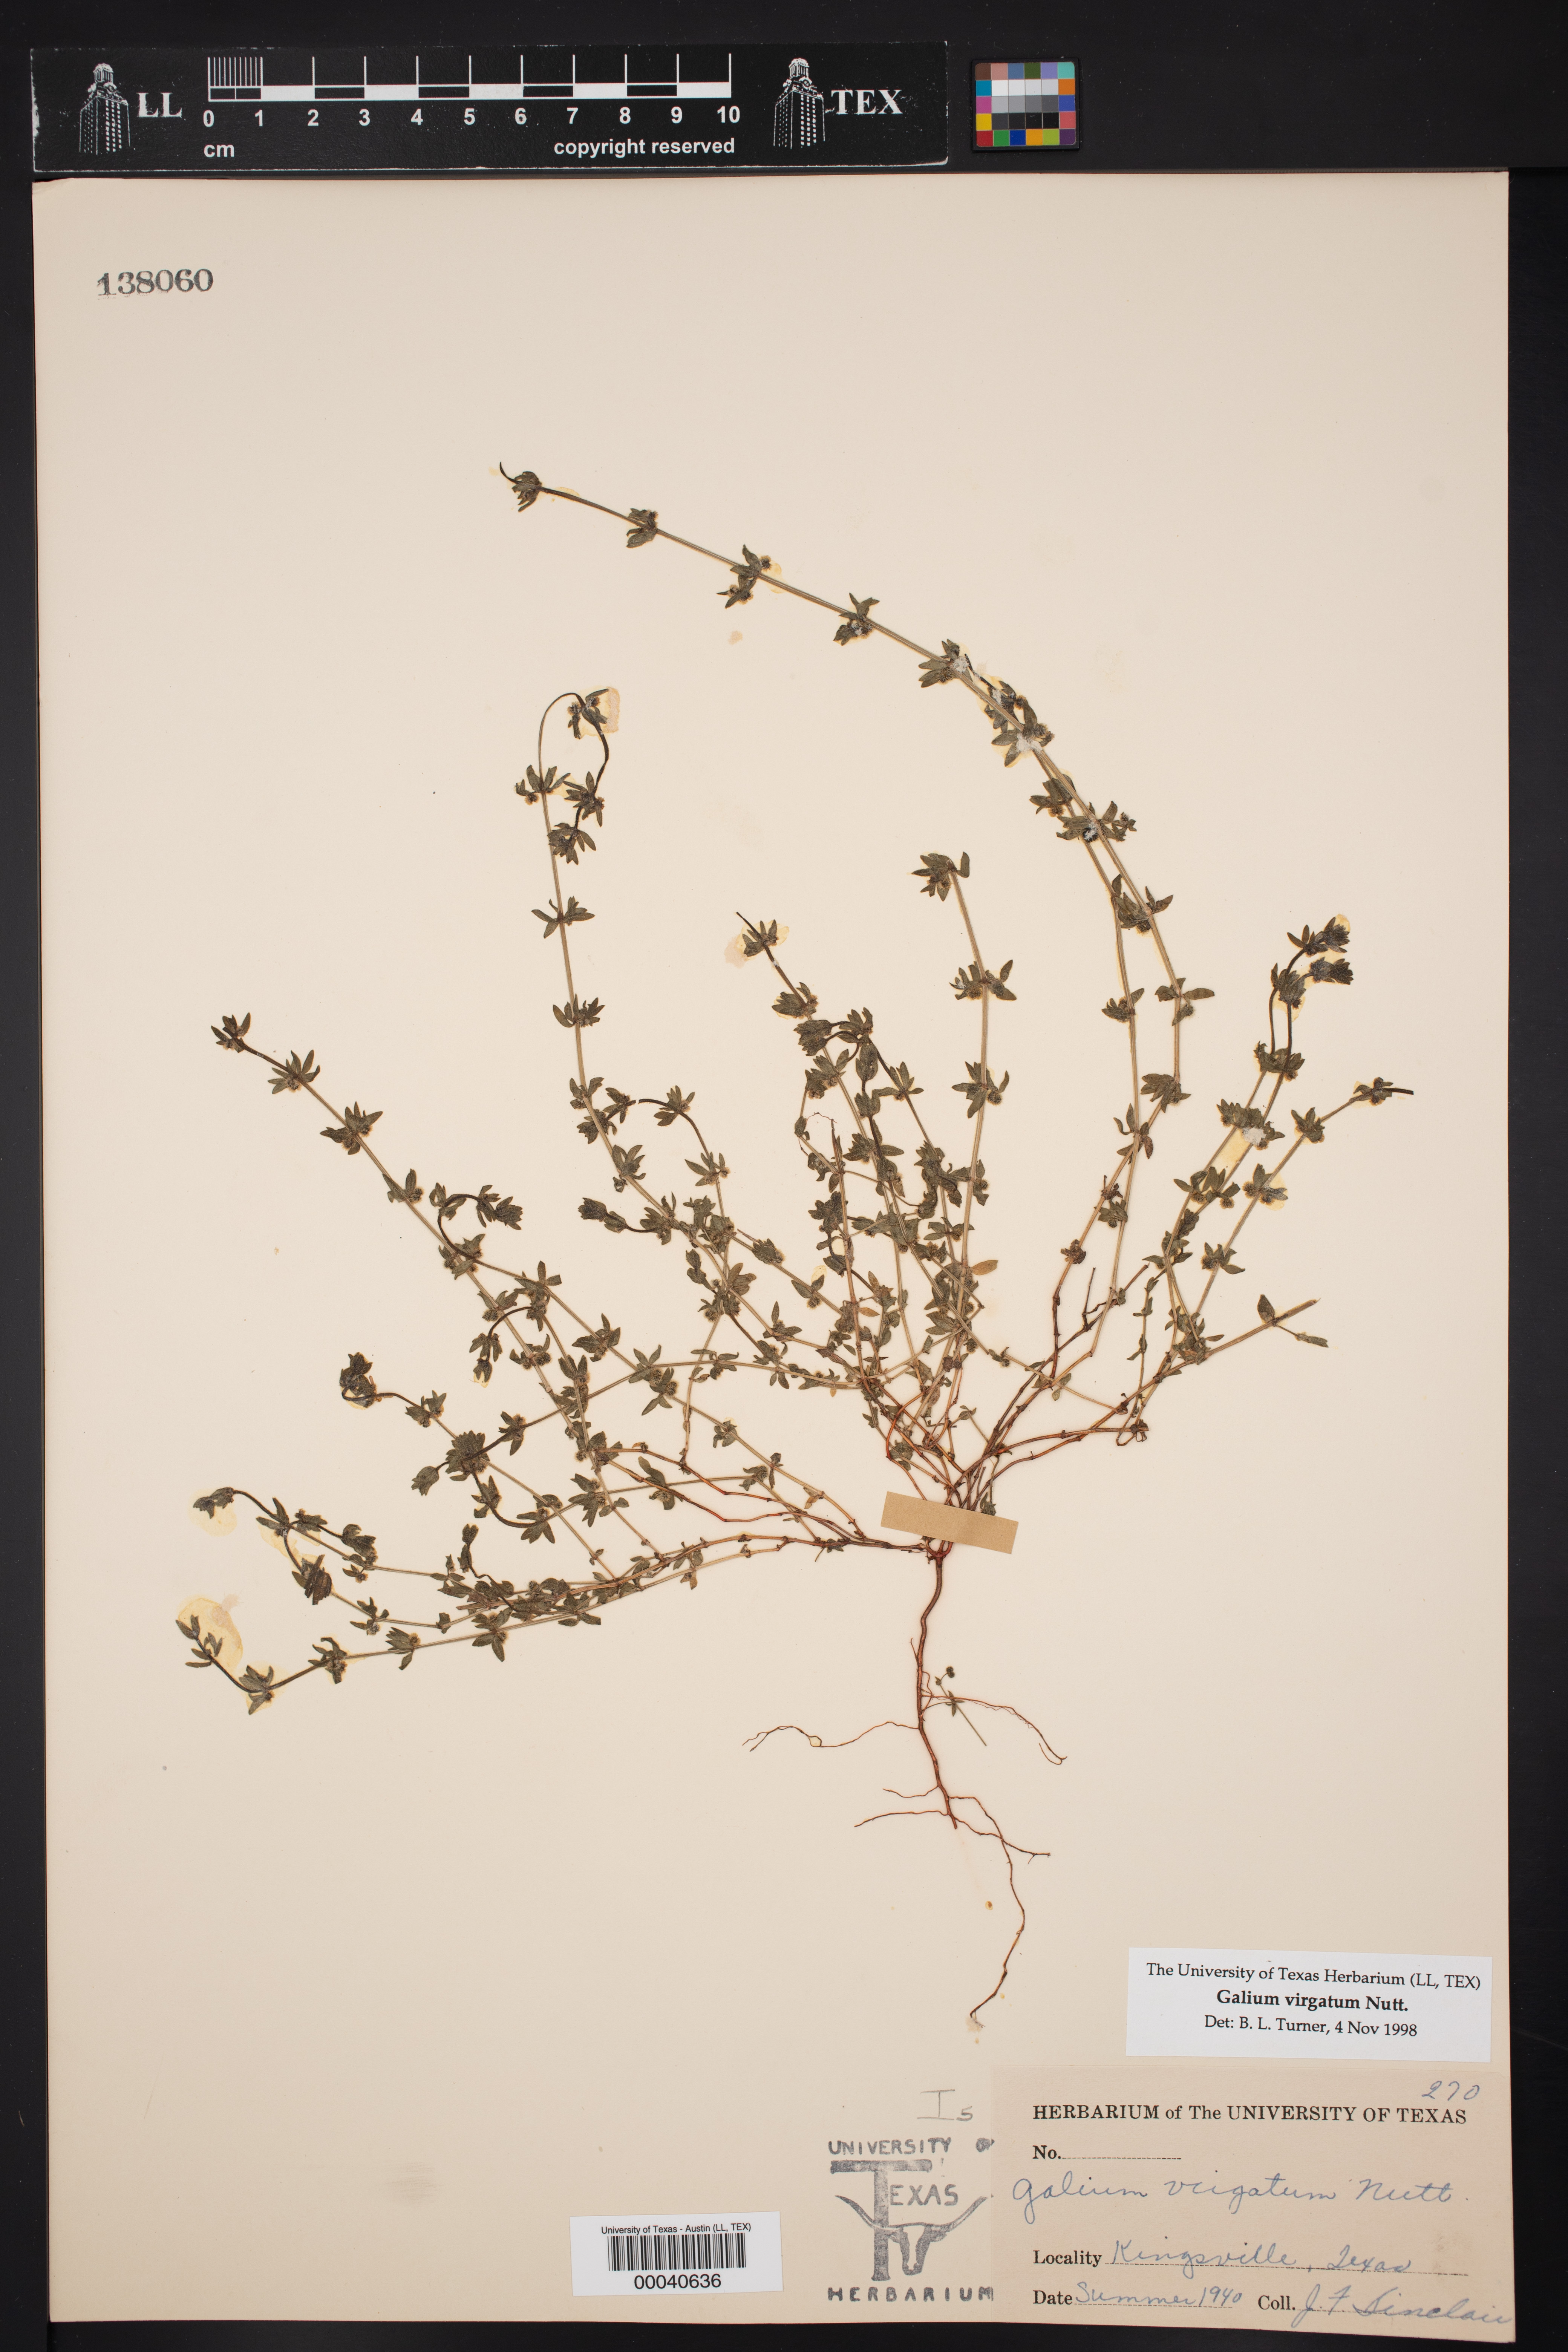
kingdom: Plantae
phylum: Tracheophyta
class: Magnoliopsida
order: Gentianales
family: Rubiaceae
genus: Galium
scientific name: Galium virgatum
